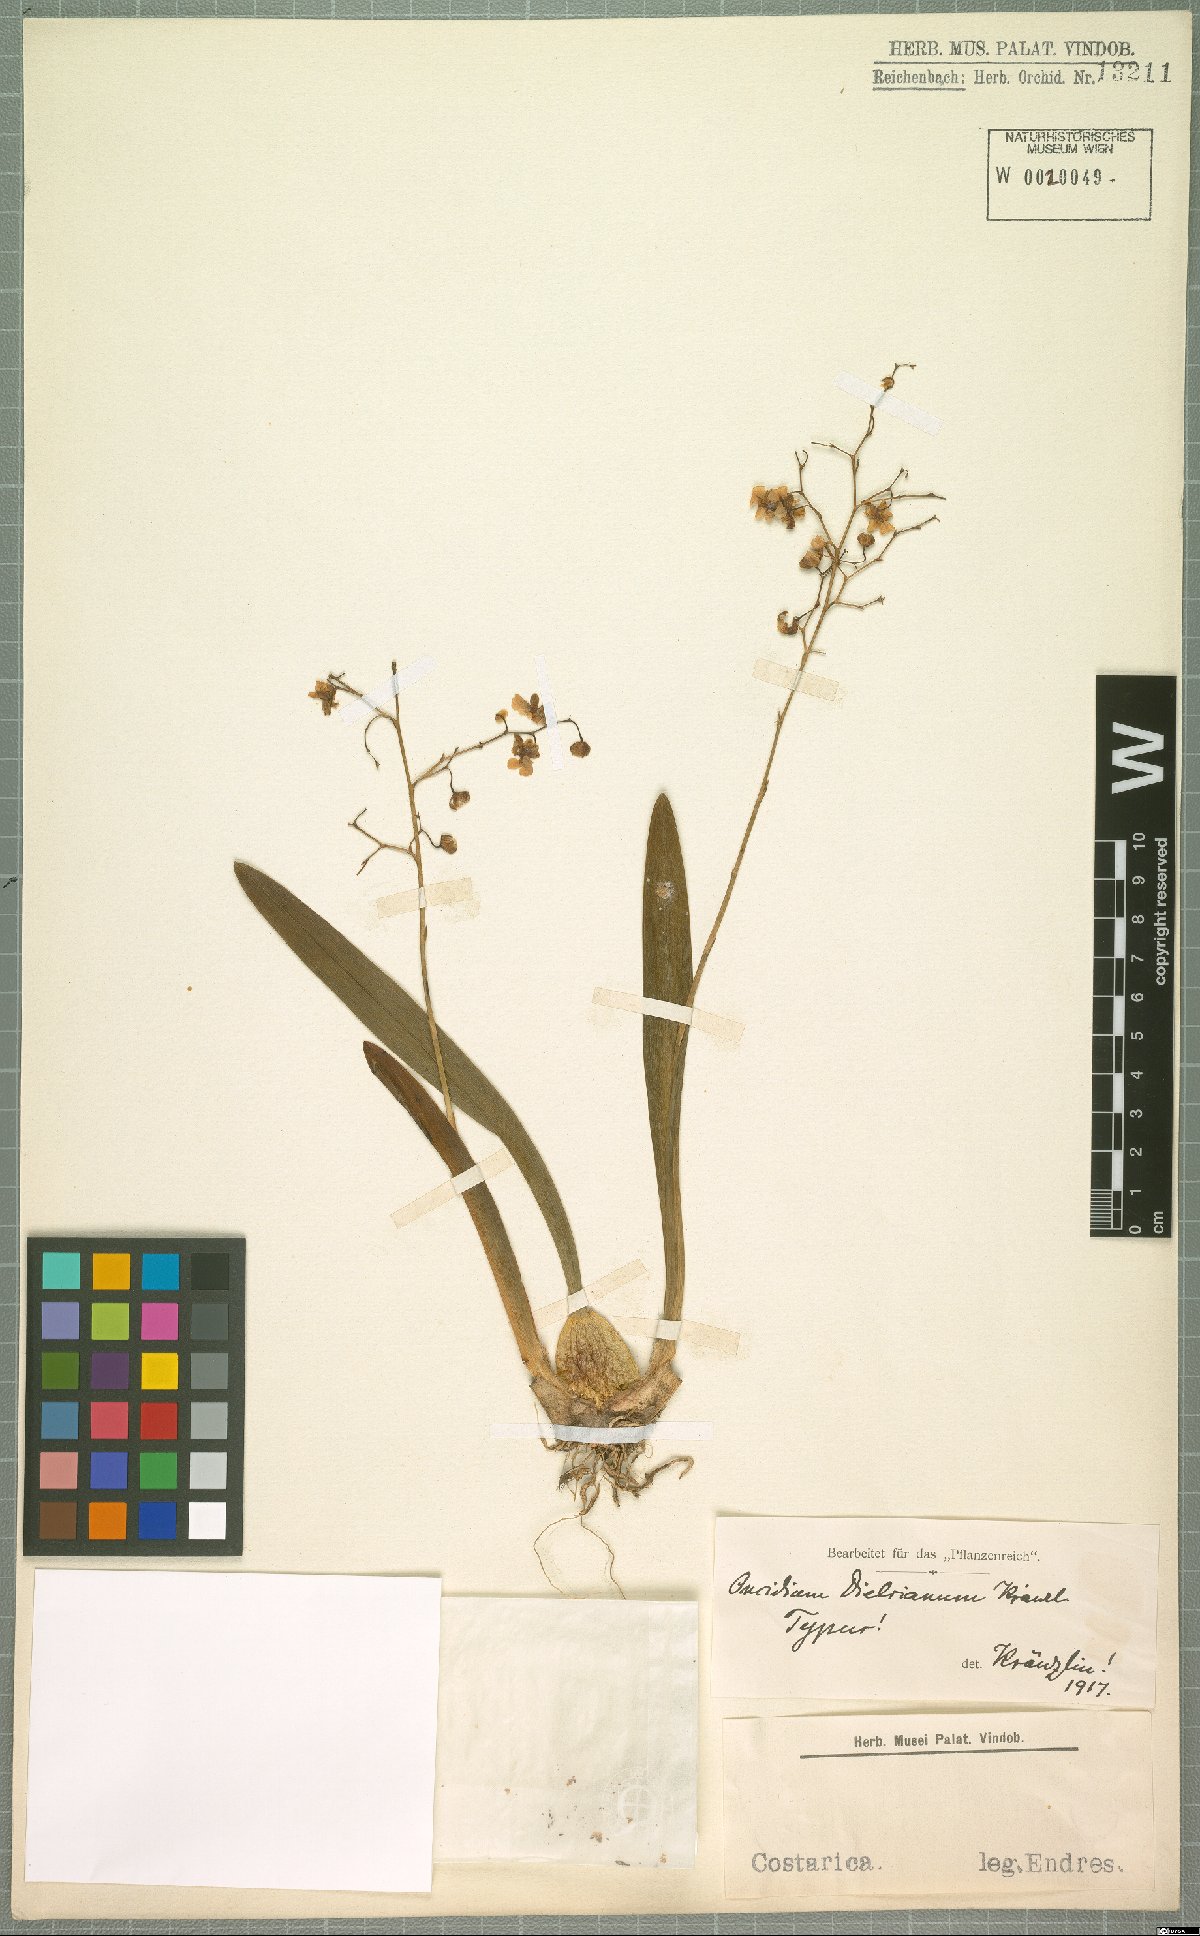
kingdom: Plantae
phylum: Tracheophyta
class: Liliopsida
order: Asparagales
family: Orchidaceae
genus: Oncidium
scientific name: Oncidium cheirophorum
